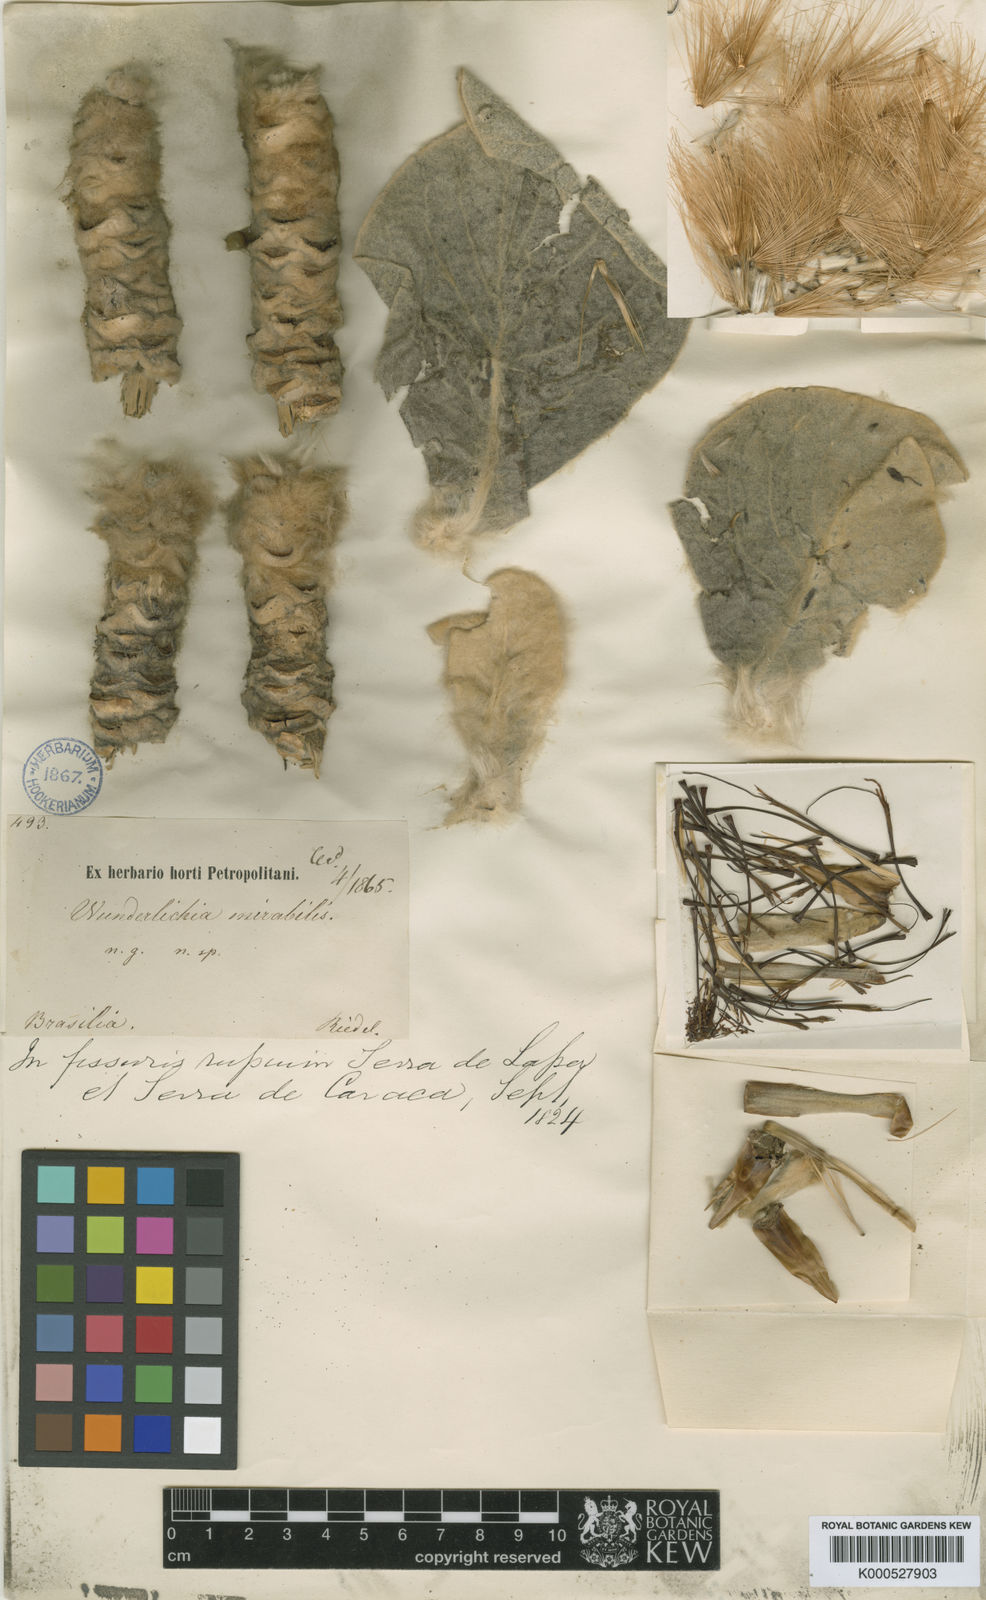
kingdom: Plantae
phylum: Tracheophyta
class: Magnoliopsida
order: Asterales
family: Asteraceae
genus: Wunderlichia
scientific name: Wunderlichia mirabilis
